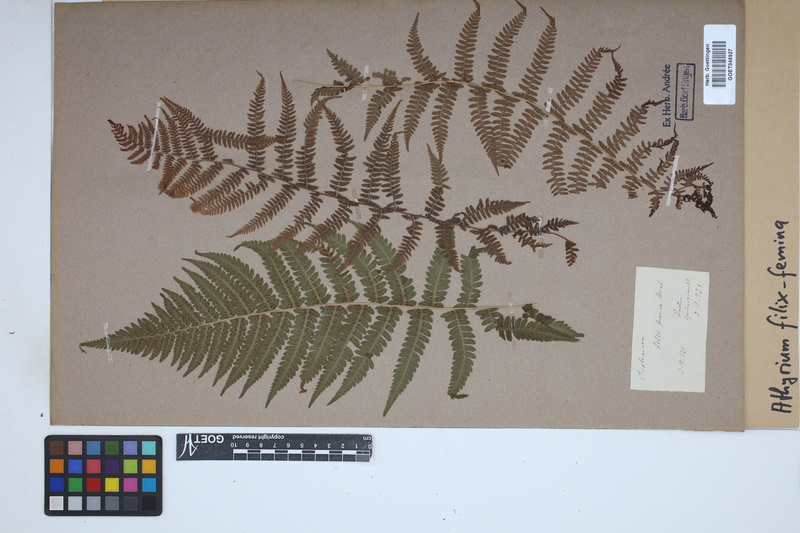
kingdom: Plantae
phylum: Tracheophyta
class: Polypodiopsida
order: Polypodiales
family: Athyriaceae
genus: Athyrium
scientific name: Athyrium filix-femina
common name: Lady fern
